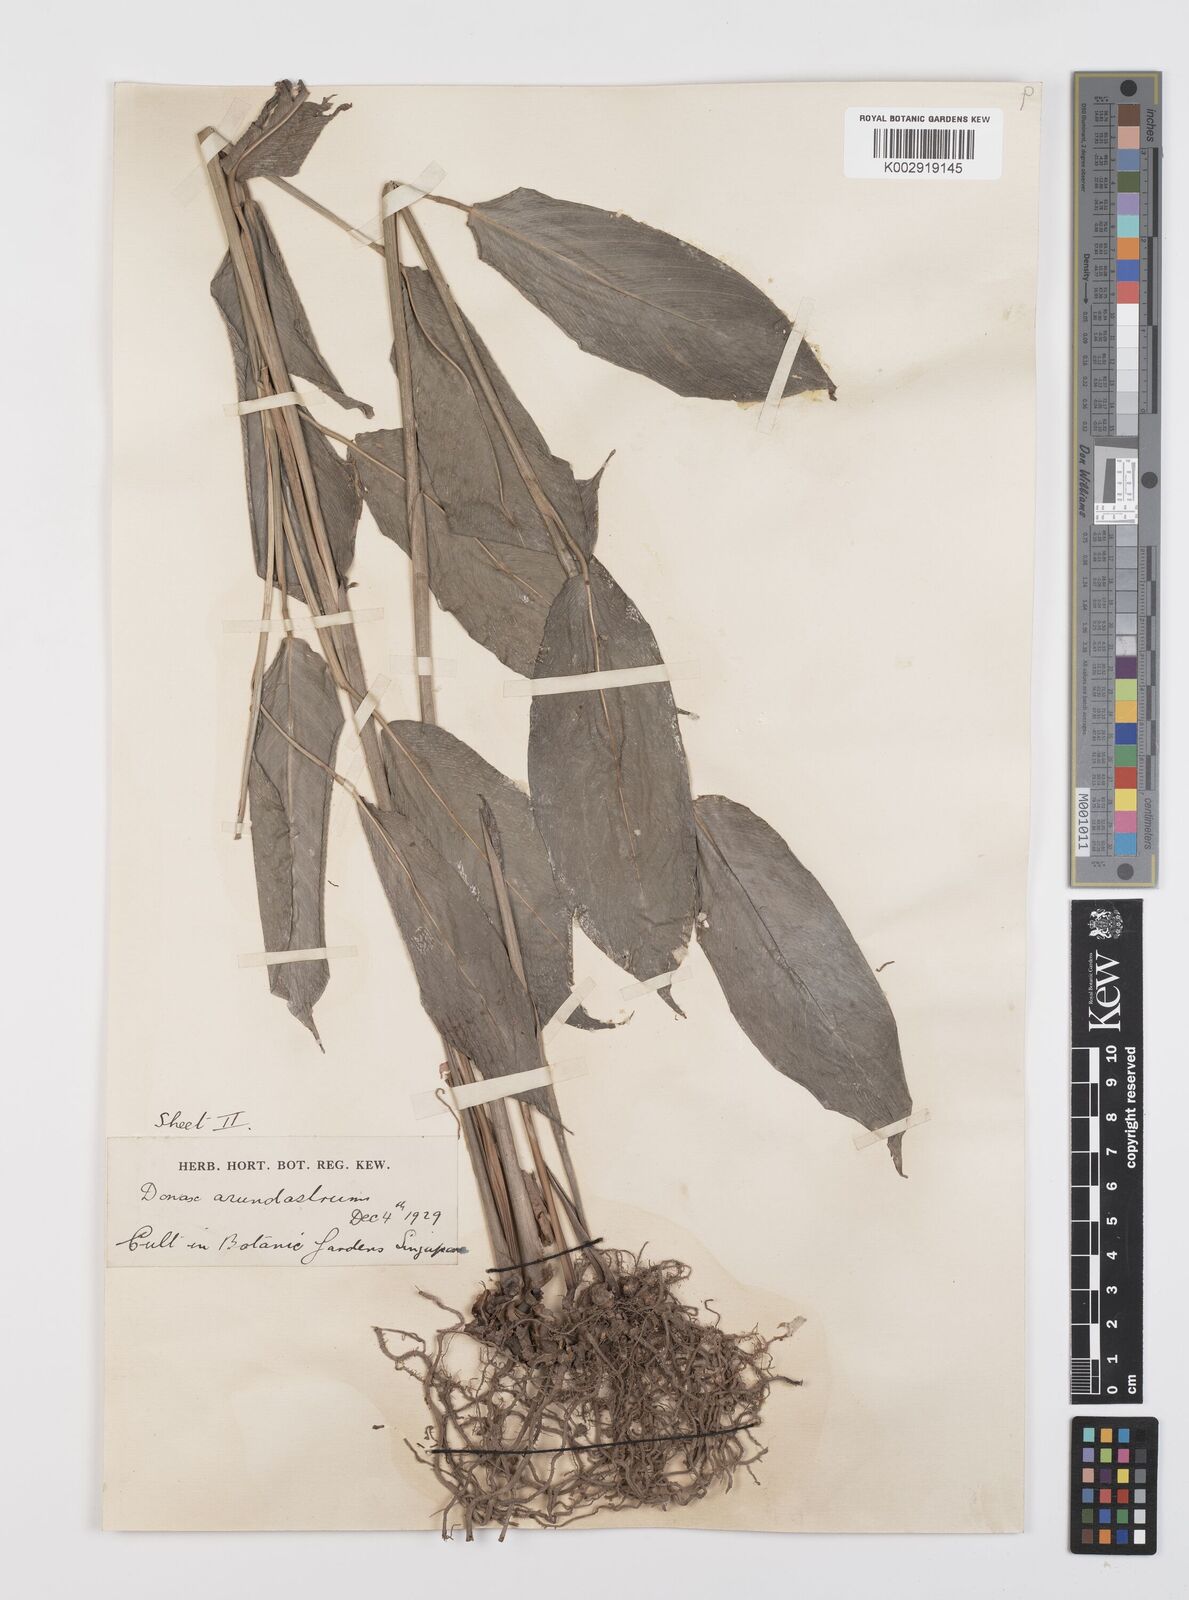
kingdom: Plantae
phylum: Tracheophyta
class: Liliopsida
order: Zingiberales
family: Marantaceae
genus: Trachyphrynium
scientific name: Trachyphrynium braunianum
